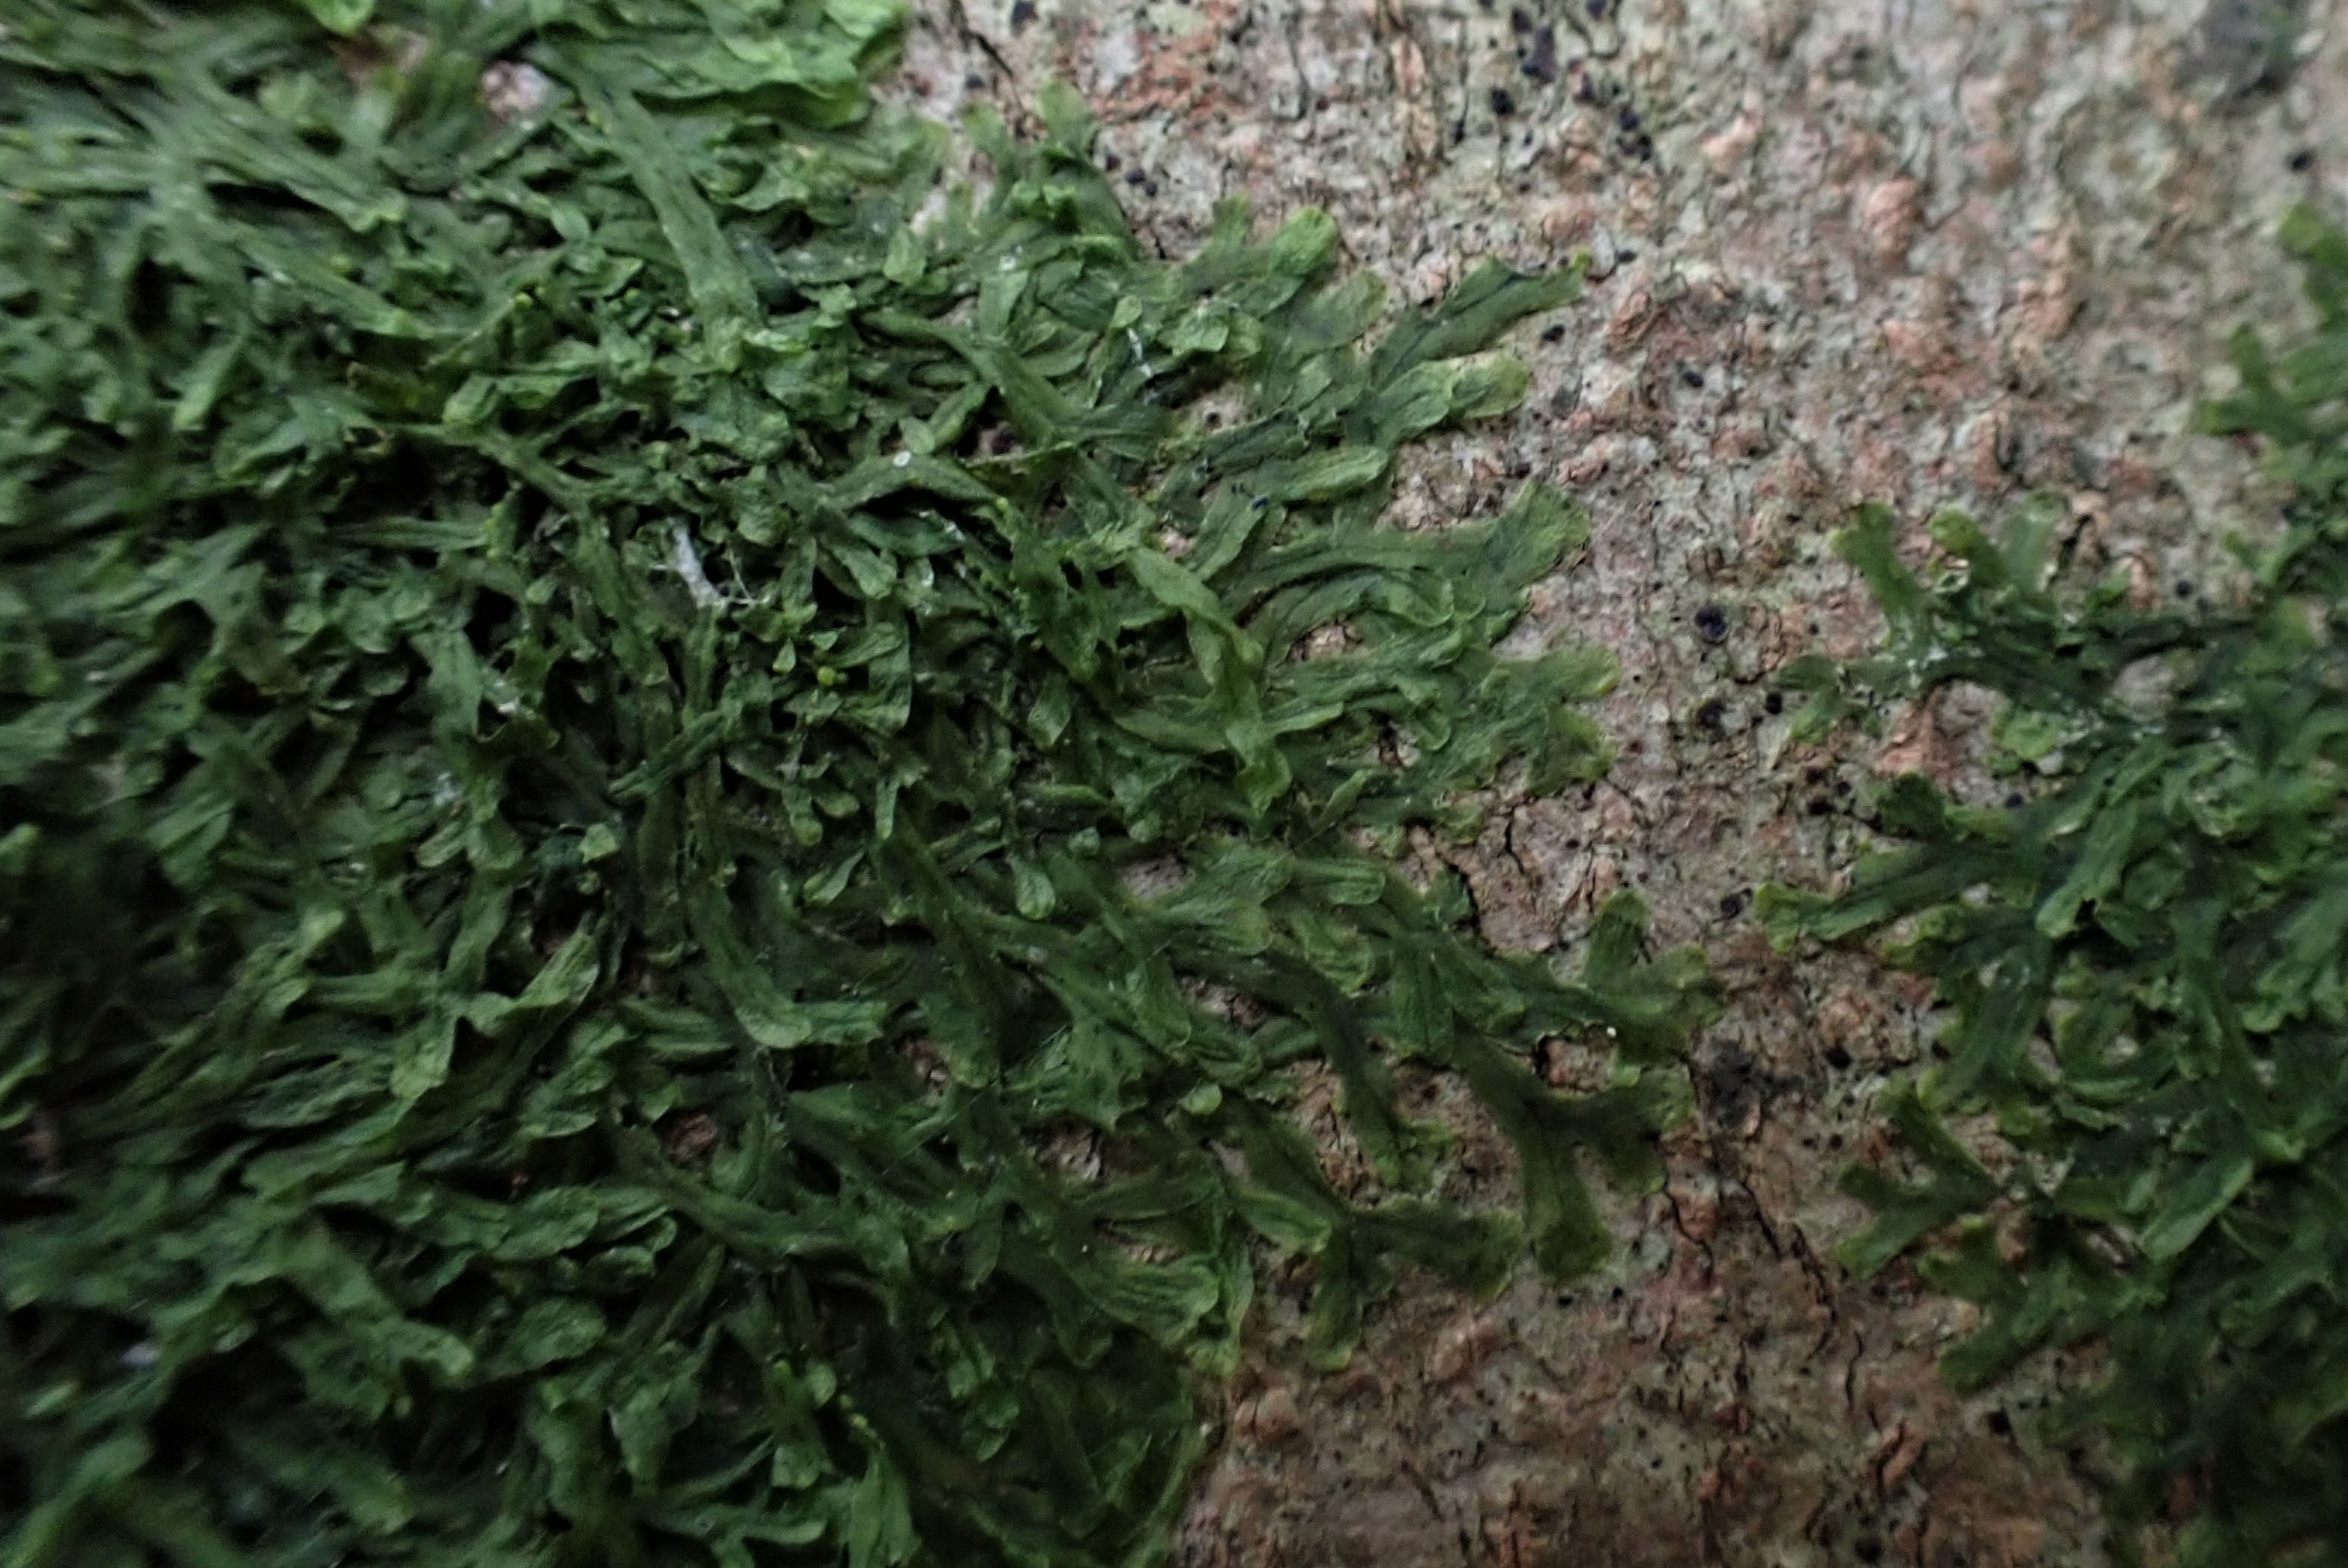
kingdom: Plantae
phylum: Marchantiophyta
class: Jungermanniopsida
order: Metzgeriales
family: Metzgeriaceae
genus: Metzgeria
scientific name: Metzgeria furcata
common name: Almindelig gaffelløv
